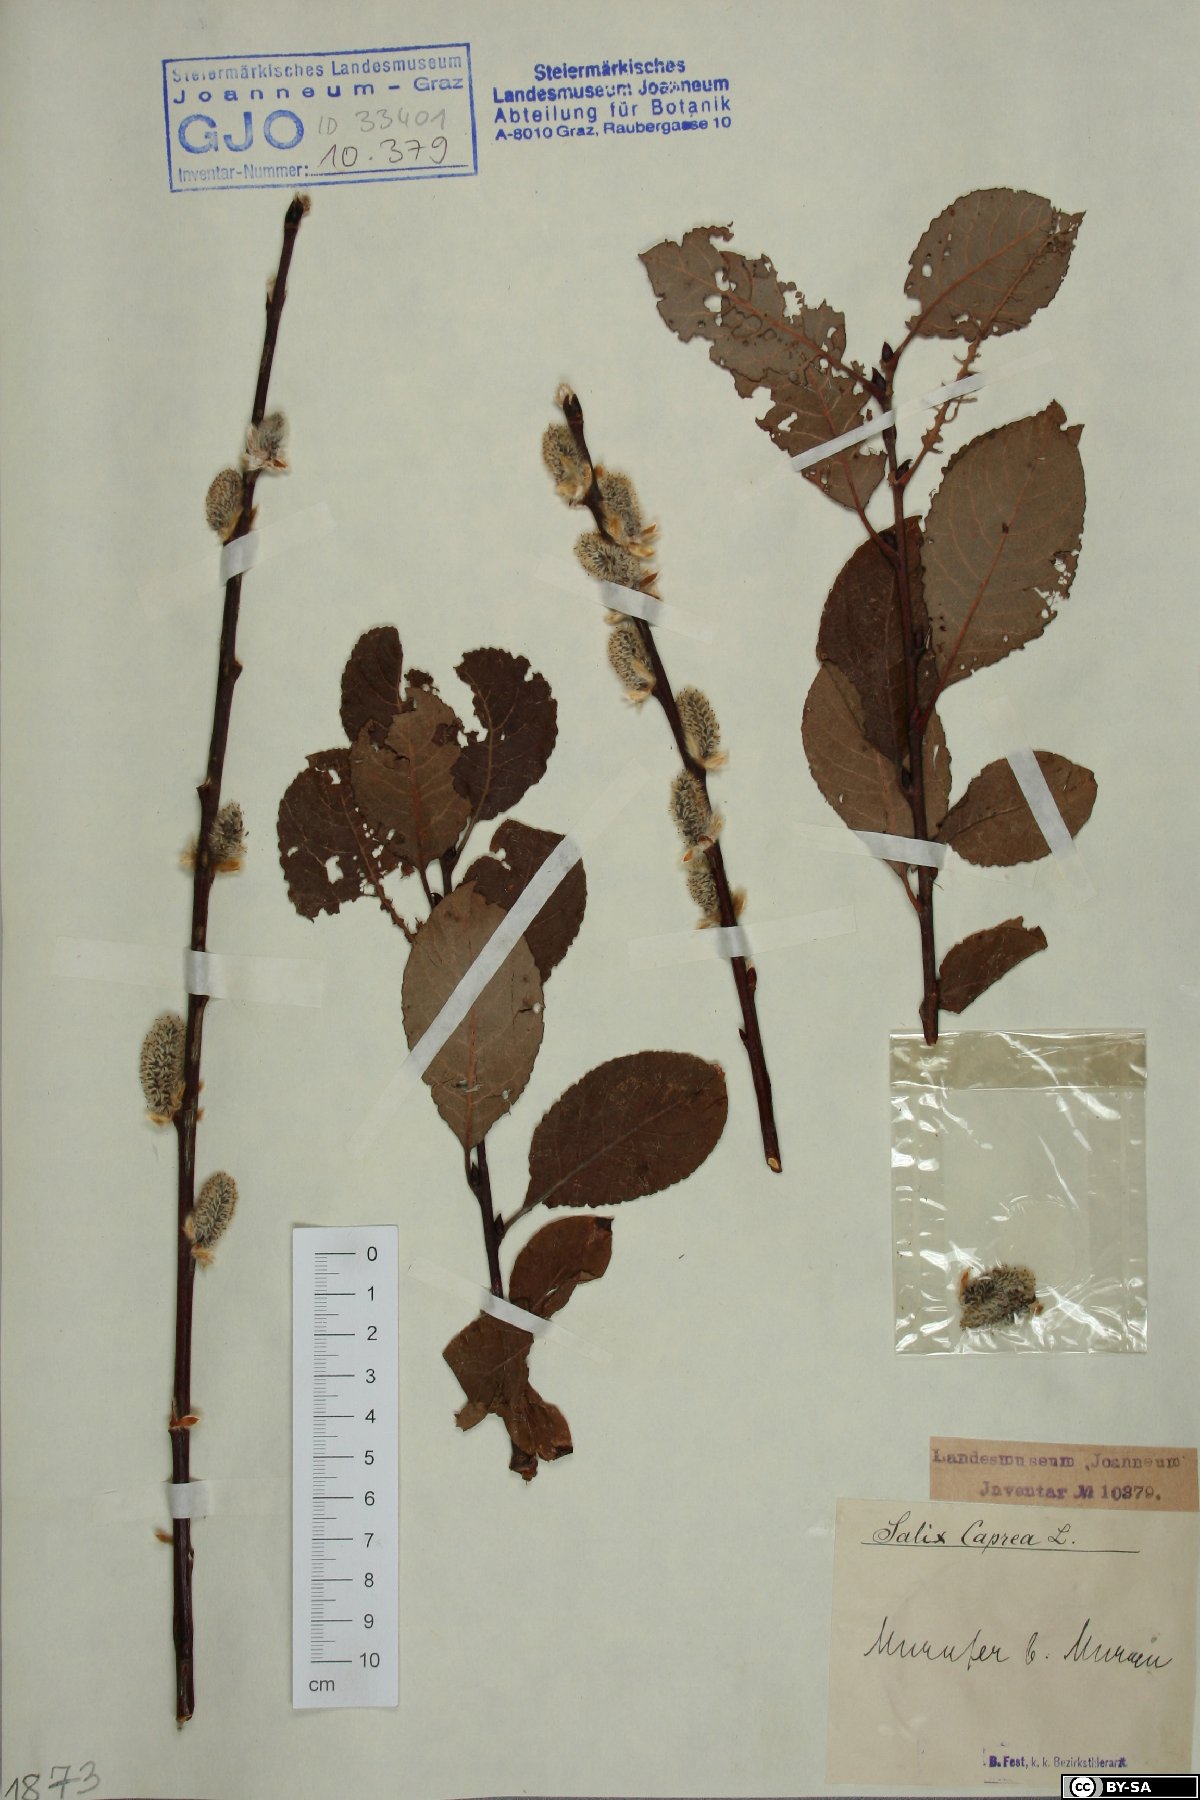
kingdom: Plantae
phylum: Tracheophyta
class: Magnoliopsida
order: Malpighiales
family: Salicaceae
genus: Salix
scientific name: Salix caprea
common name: Goat willow
